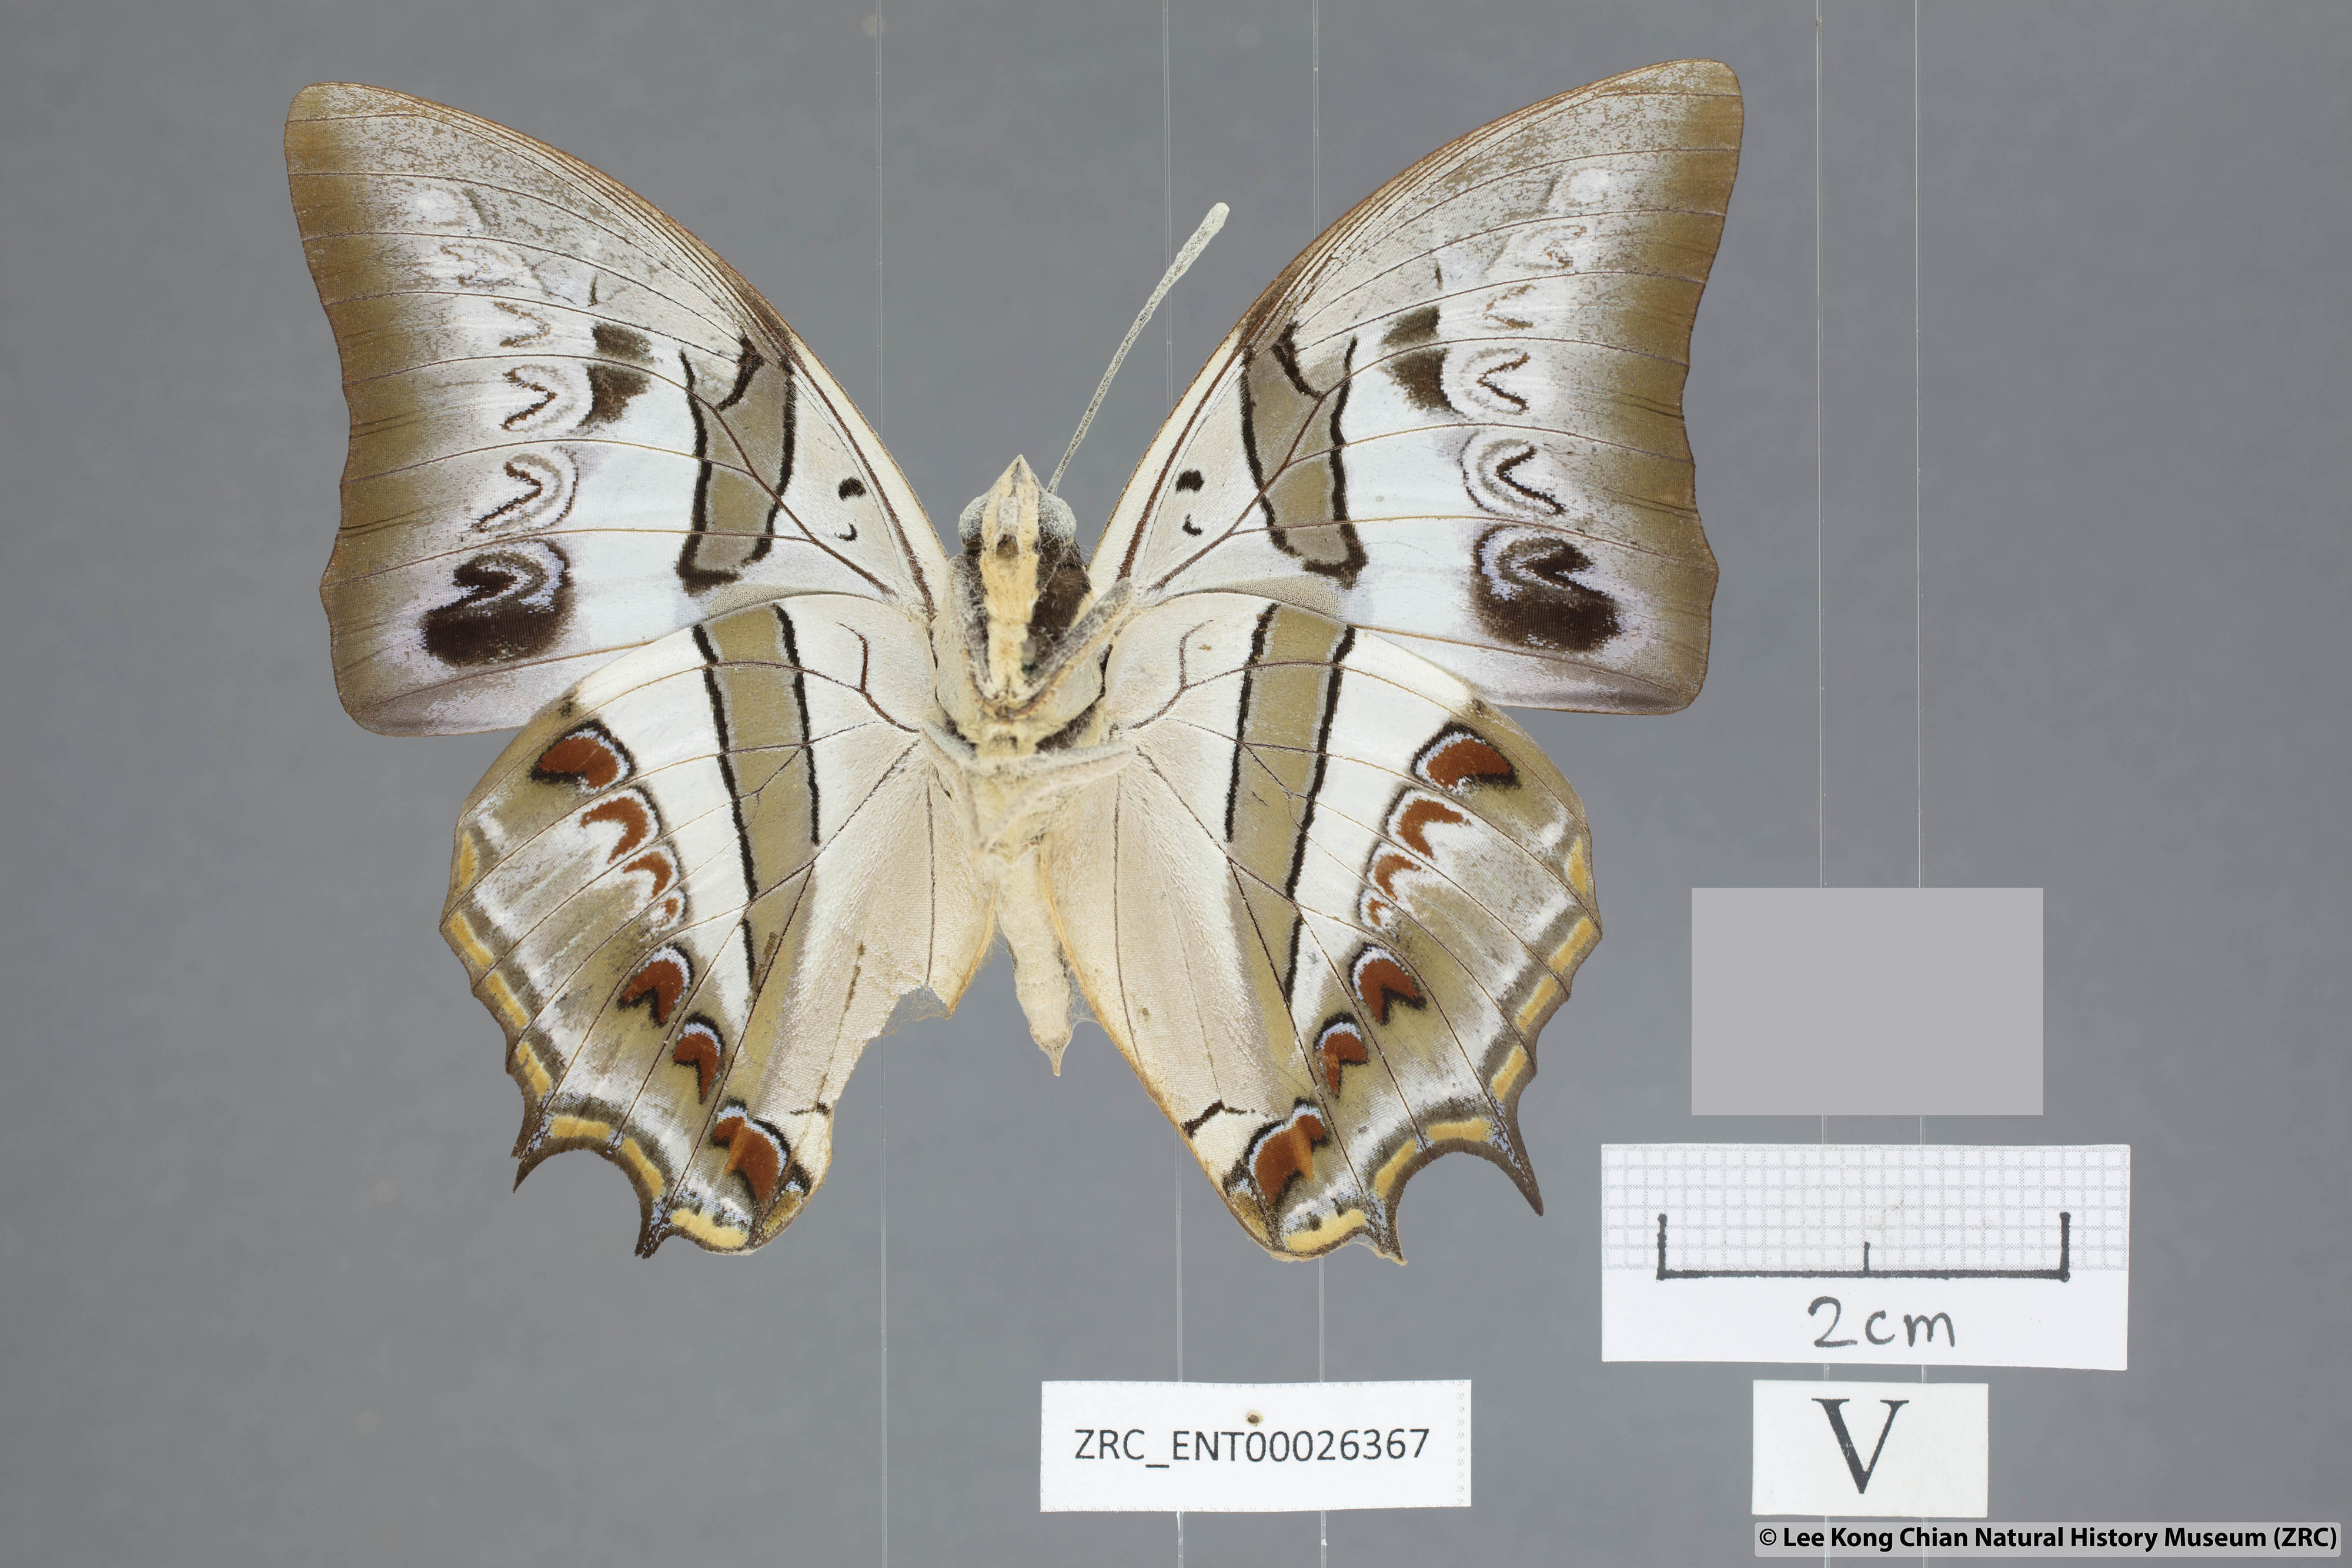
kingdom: Animalia
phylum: Arthropoda
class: Insecta
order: Lepidoptera
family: Nymphalidae
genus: Polyura
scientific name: Polyura schreiberi
